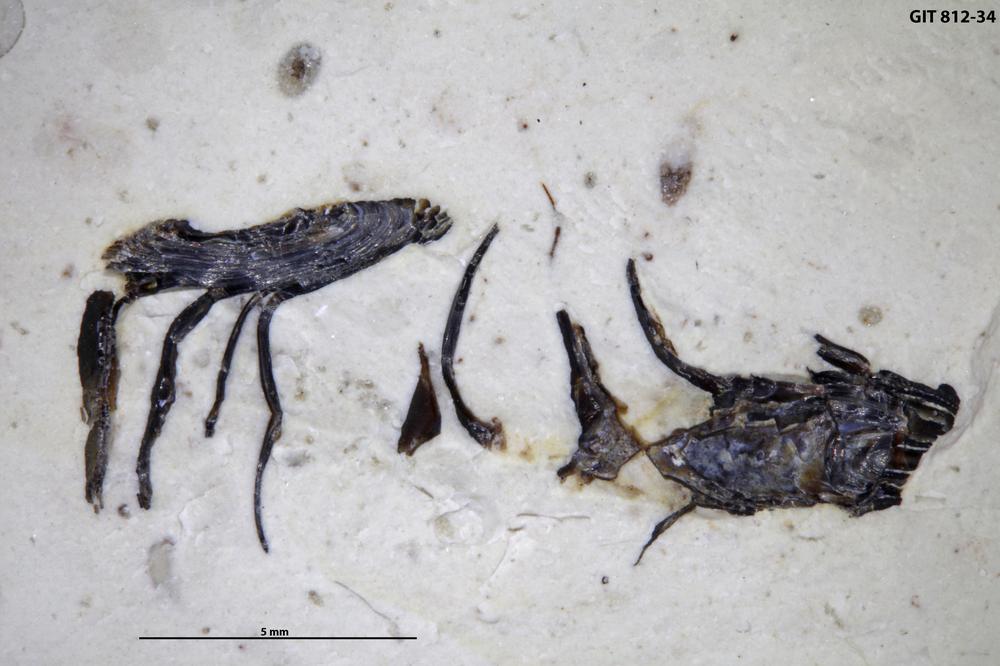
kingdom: Animalia
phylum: Cnidaria
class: Scyphozoa
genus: Palaenigma
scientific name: Palaenigma
